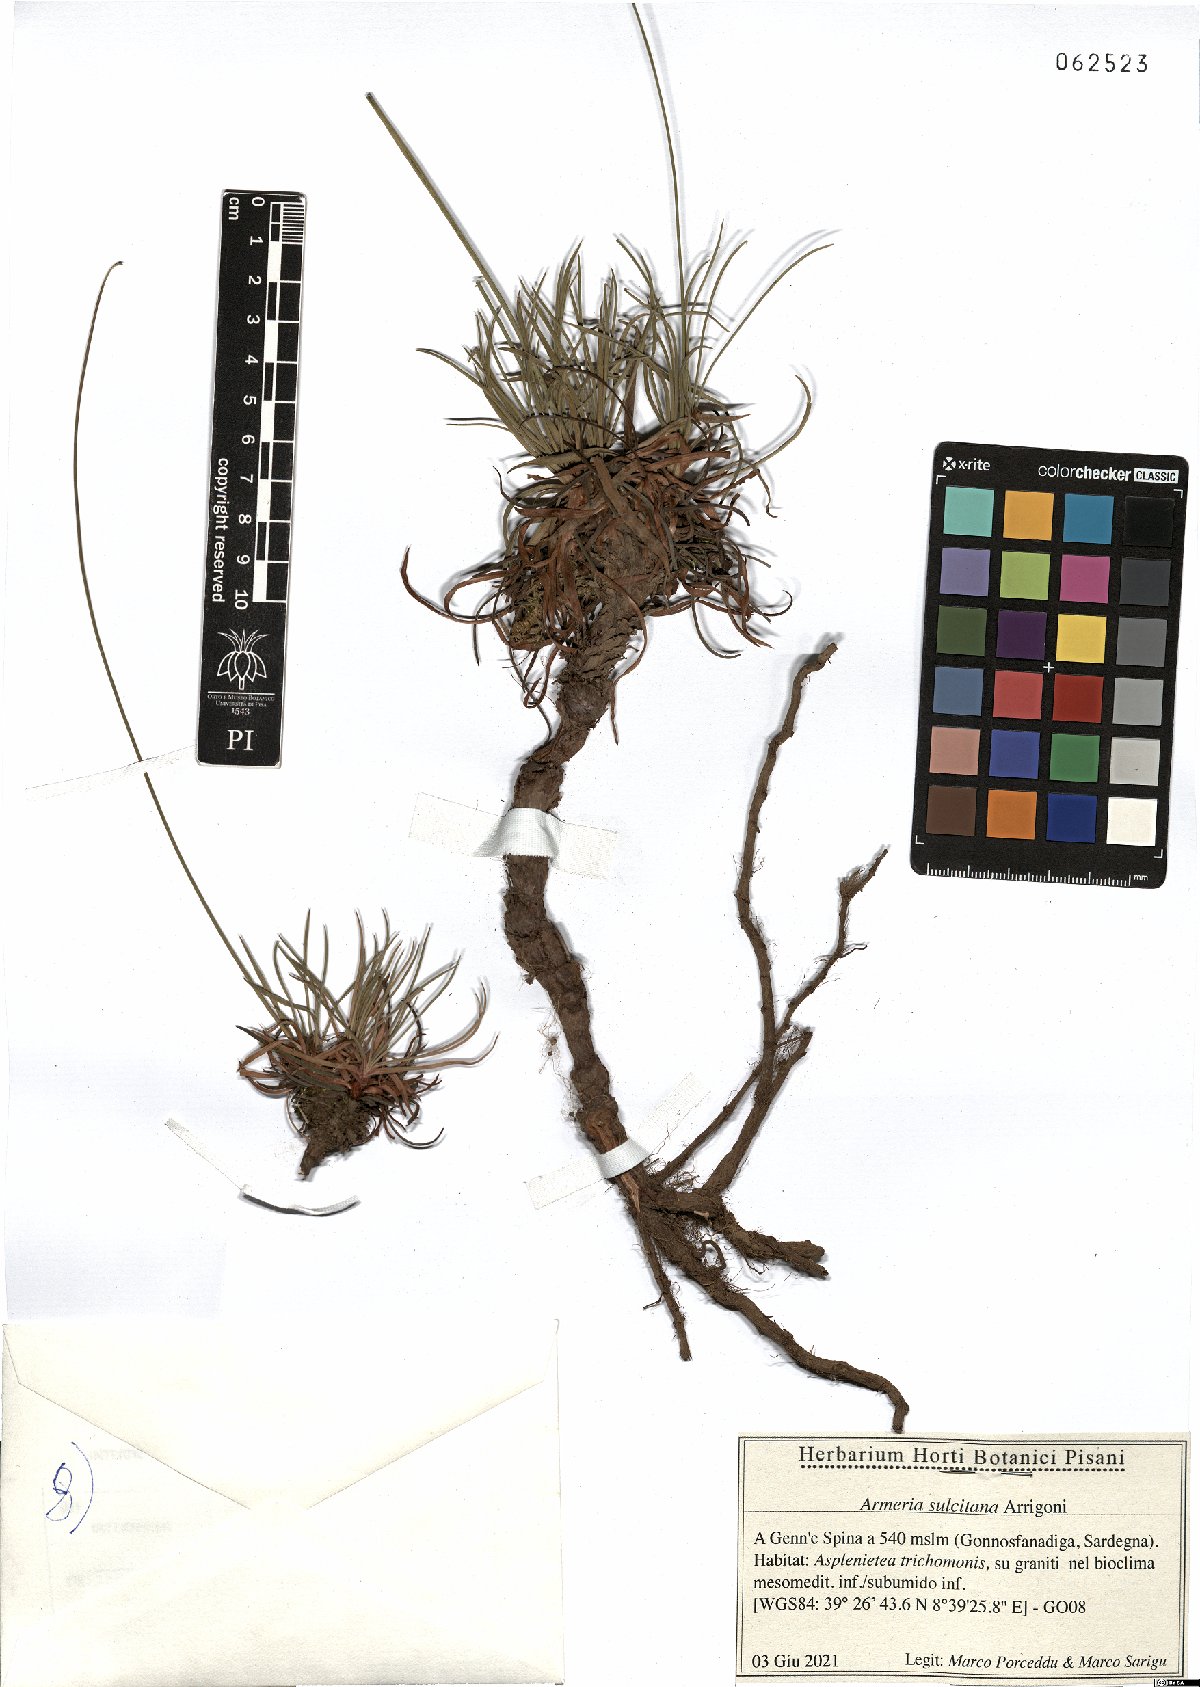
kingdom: Plantae
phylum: Tracheophyta
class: Magnoliopsida
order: Caryophyllales
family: Plumbaginaceae
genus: Armeria
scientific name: Armeria sulcitana
